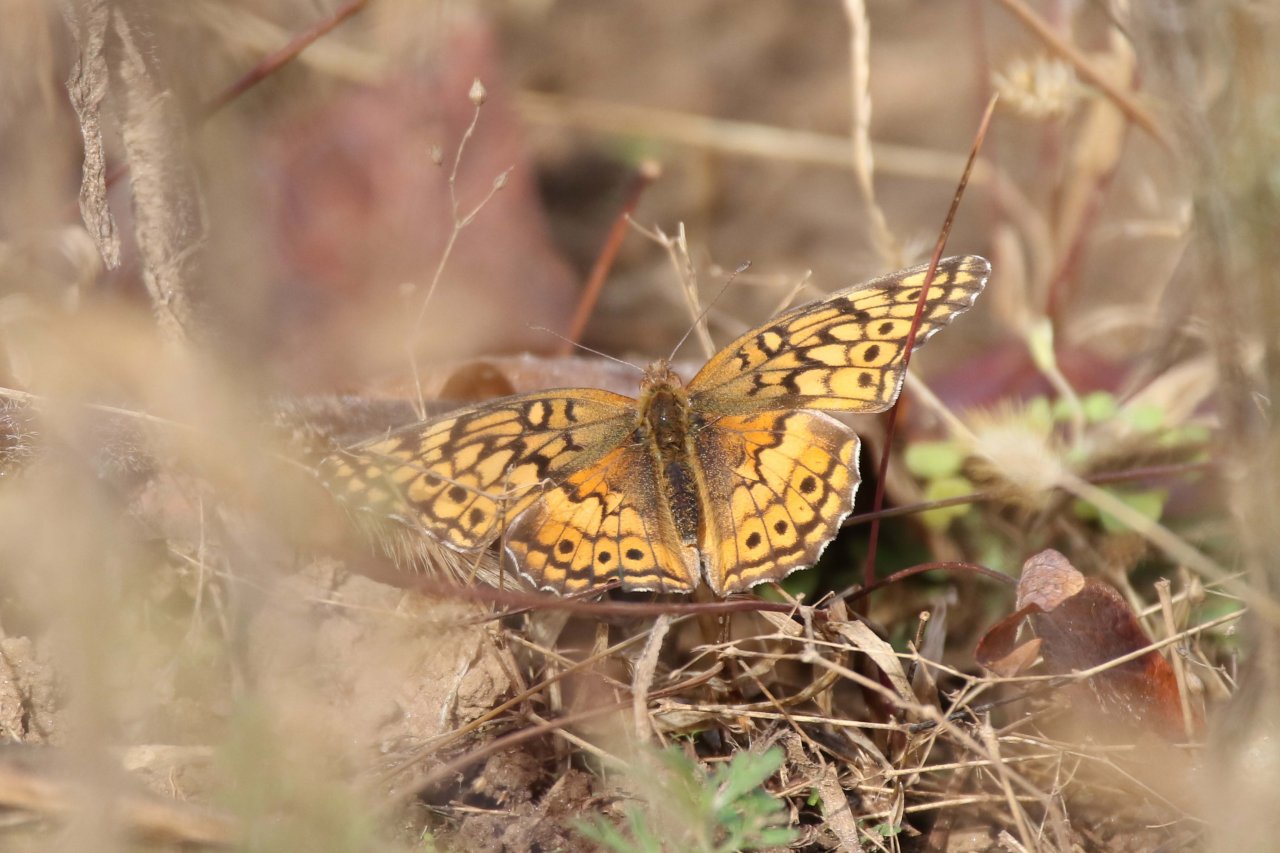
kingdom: Animalia
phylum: Arthropoda
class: Insecta
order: Lepidoptera
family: Nymphalidae
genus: Euptoieta
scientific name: Euptoieta claudia
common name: Variegated Fritillary
